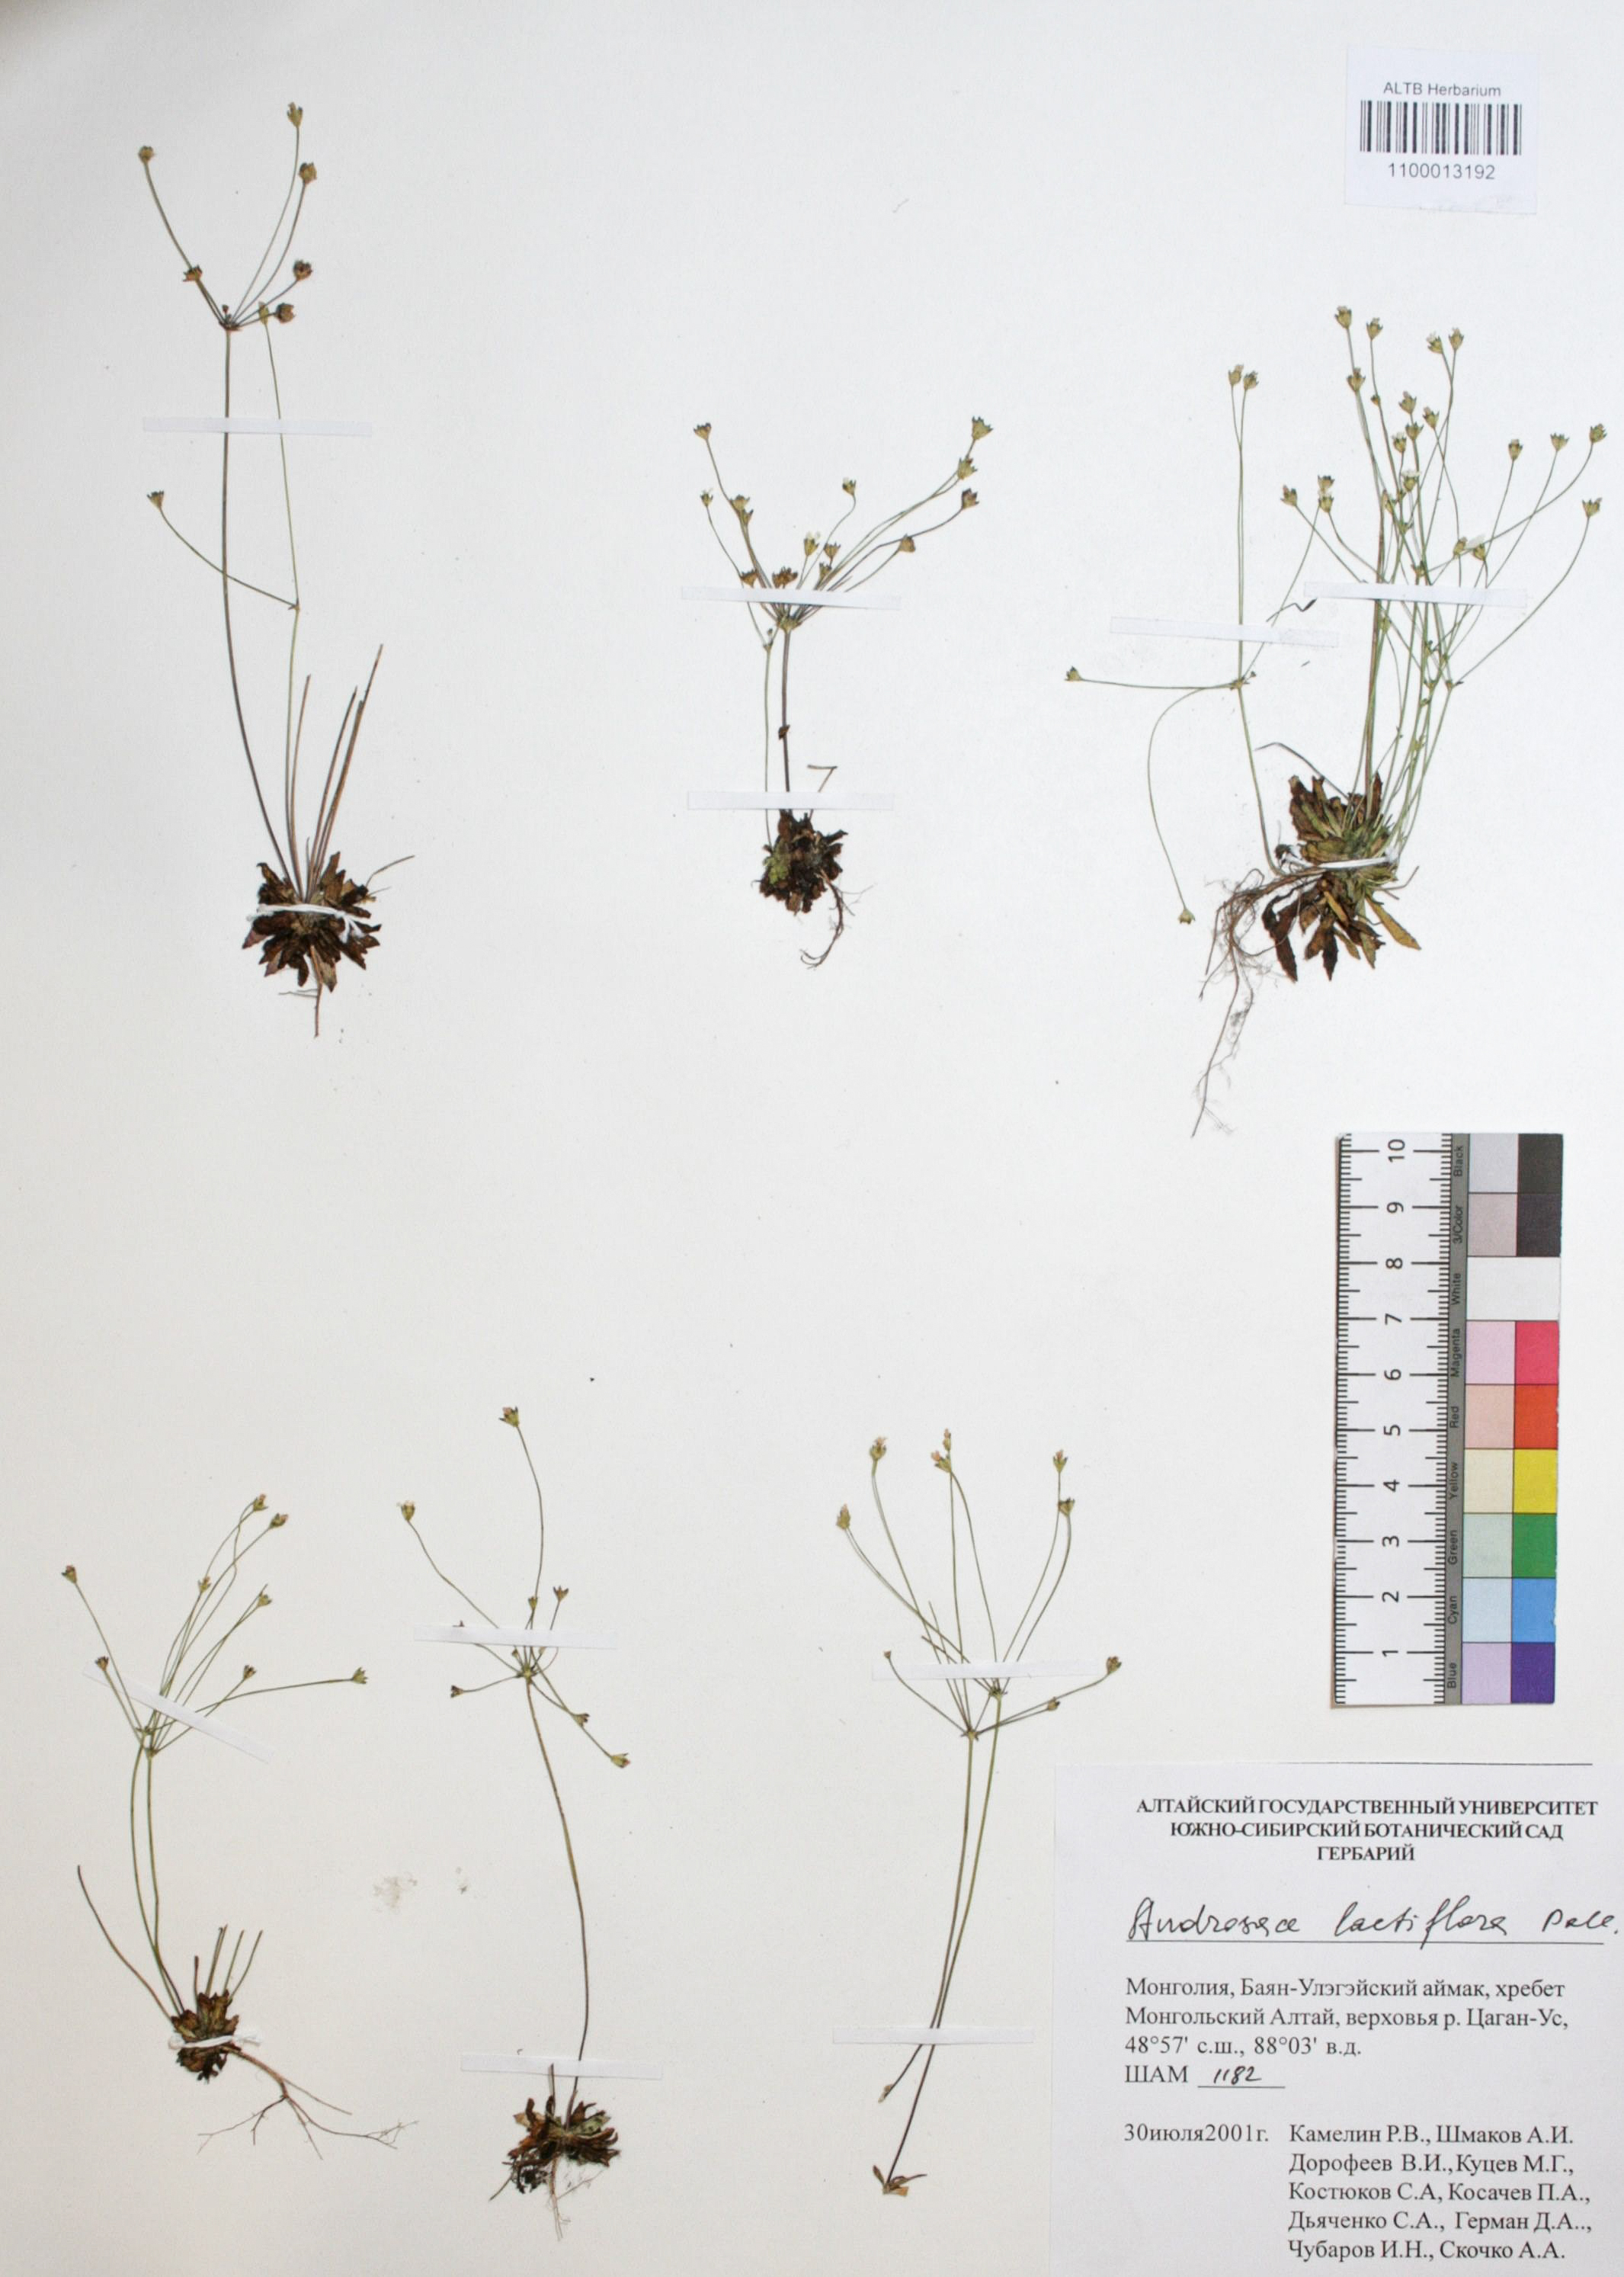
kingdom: Plantae
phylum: Tracheophyta
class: Magnoliopsida
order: Ericales
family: Primulaceae
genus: Androsace
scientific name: Androsace lactiflora
